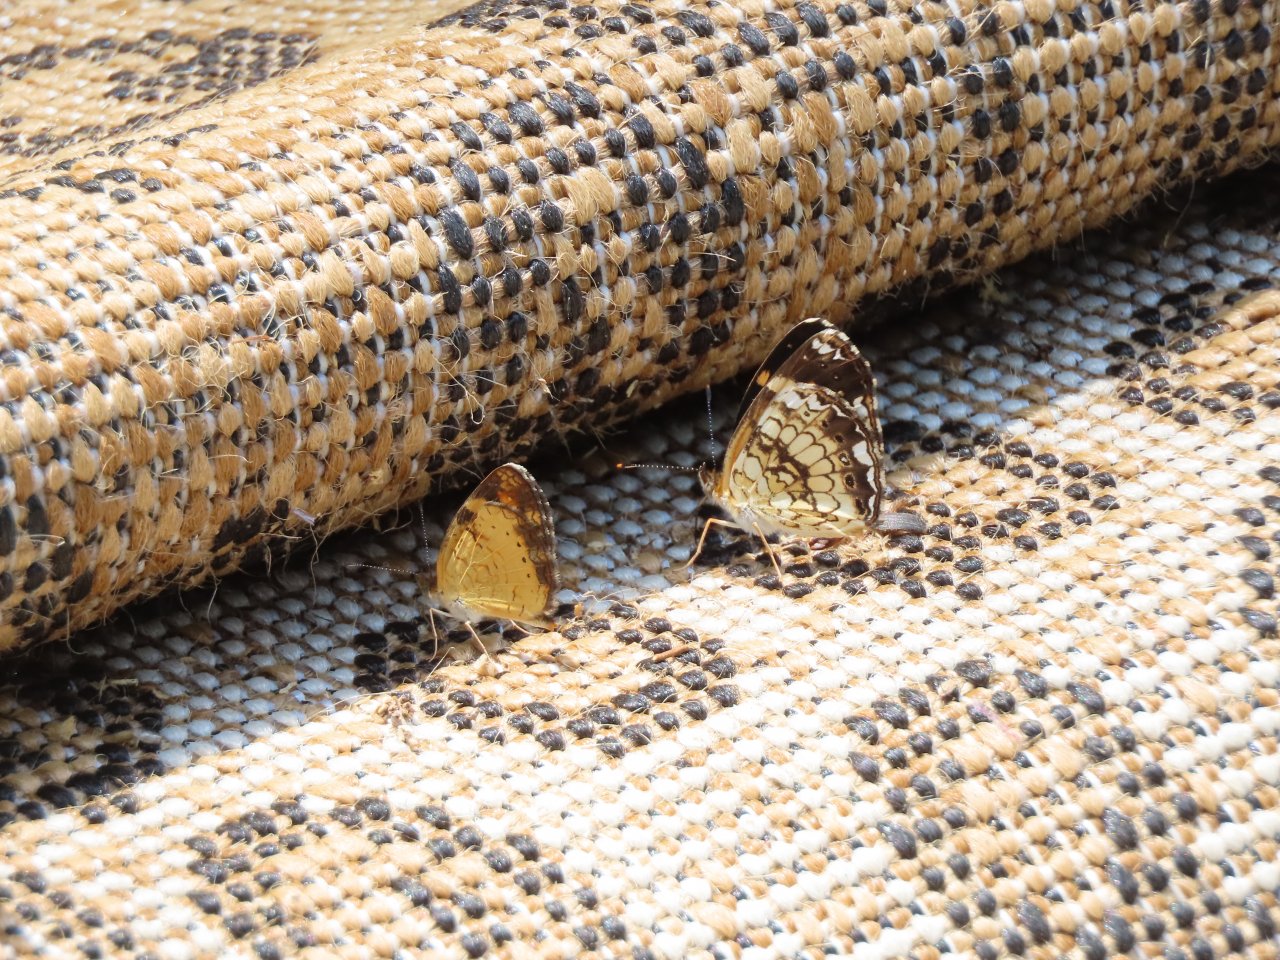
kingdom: Animalia
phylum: Arthropoda
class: Insecta
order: Lepidoptera
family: Nymphalidae
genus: Chlosyne
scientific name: Chlosyne nycteis
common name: Silvery Checkerspot
